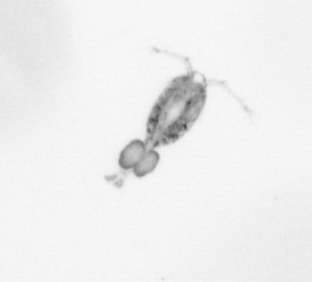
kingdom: Animalia
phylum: Arthropoda
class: Copepoda
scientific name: Copepoda
